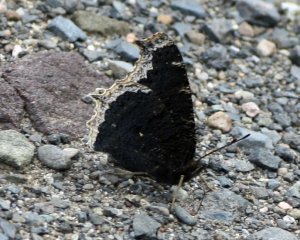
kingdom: Animalia
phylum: Arthropoda
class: Insecta
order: Lepidoptera
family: Nymphalidae
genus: Nymphalis
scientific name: Nymphalis antiopa
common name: Mourning Cloak
